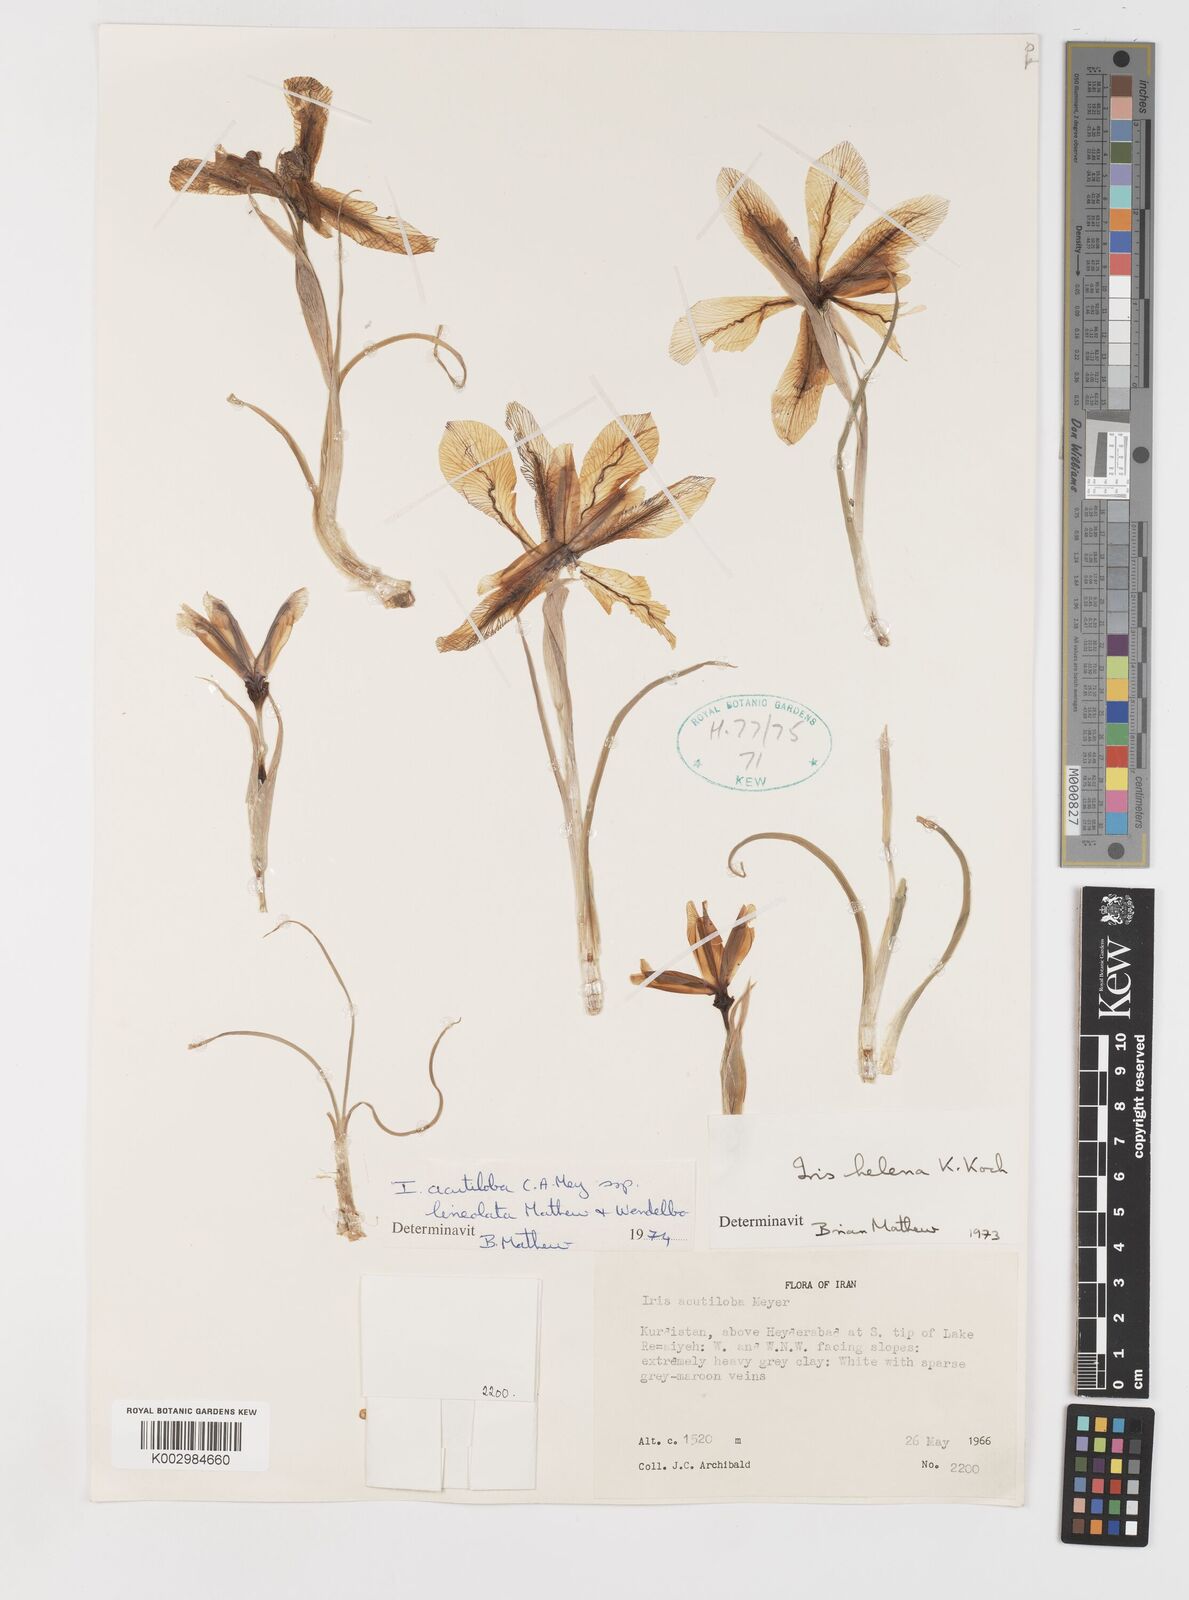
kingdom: Plantae
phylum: Tracheophyta
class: Liliopsida
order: Asparagales
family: Iridaceae
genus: Iris
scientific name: Iris acutiloba
